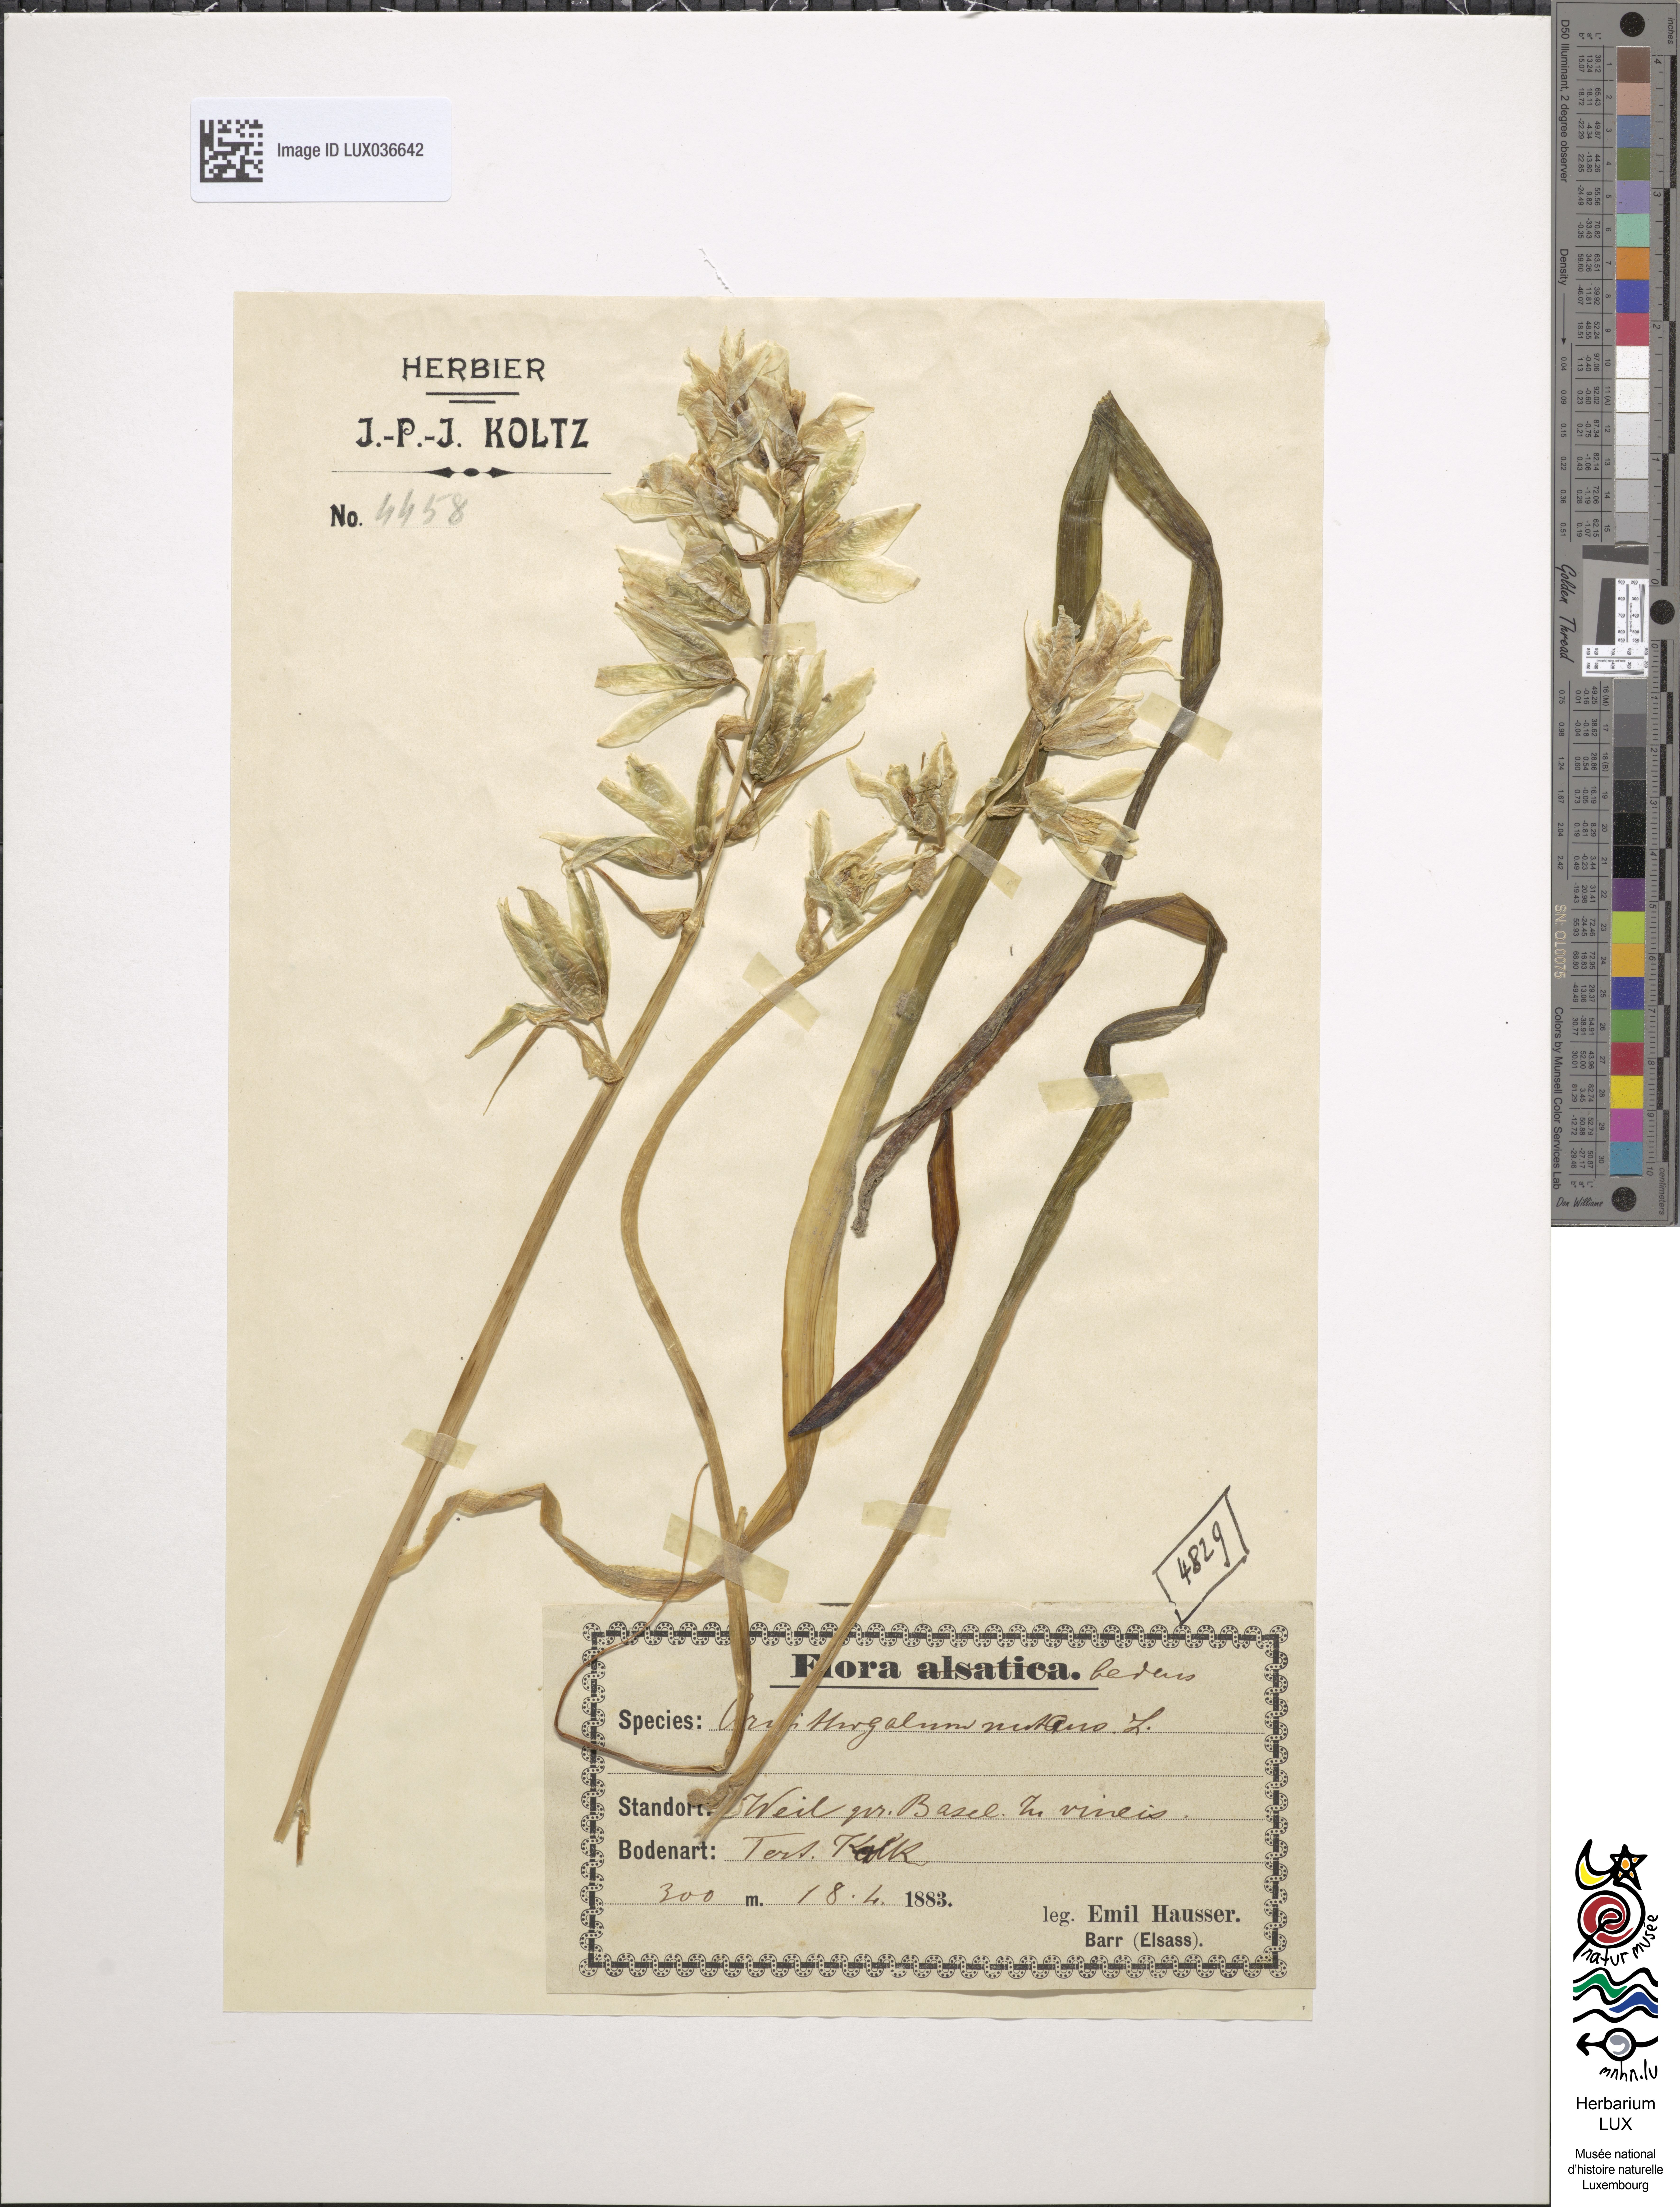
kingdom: Plantae
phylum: Tracheophyta
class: Liliopsida
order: Asparagales
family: Asparagaceae
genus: Ornithogalum
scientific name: Ornithogalum nutans
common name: Drooping star-of-bethlehem
